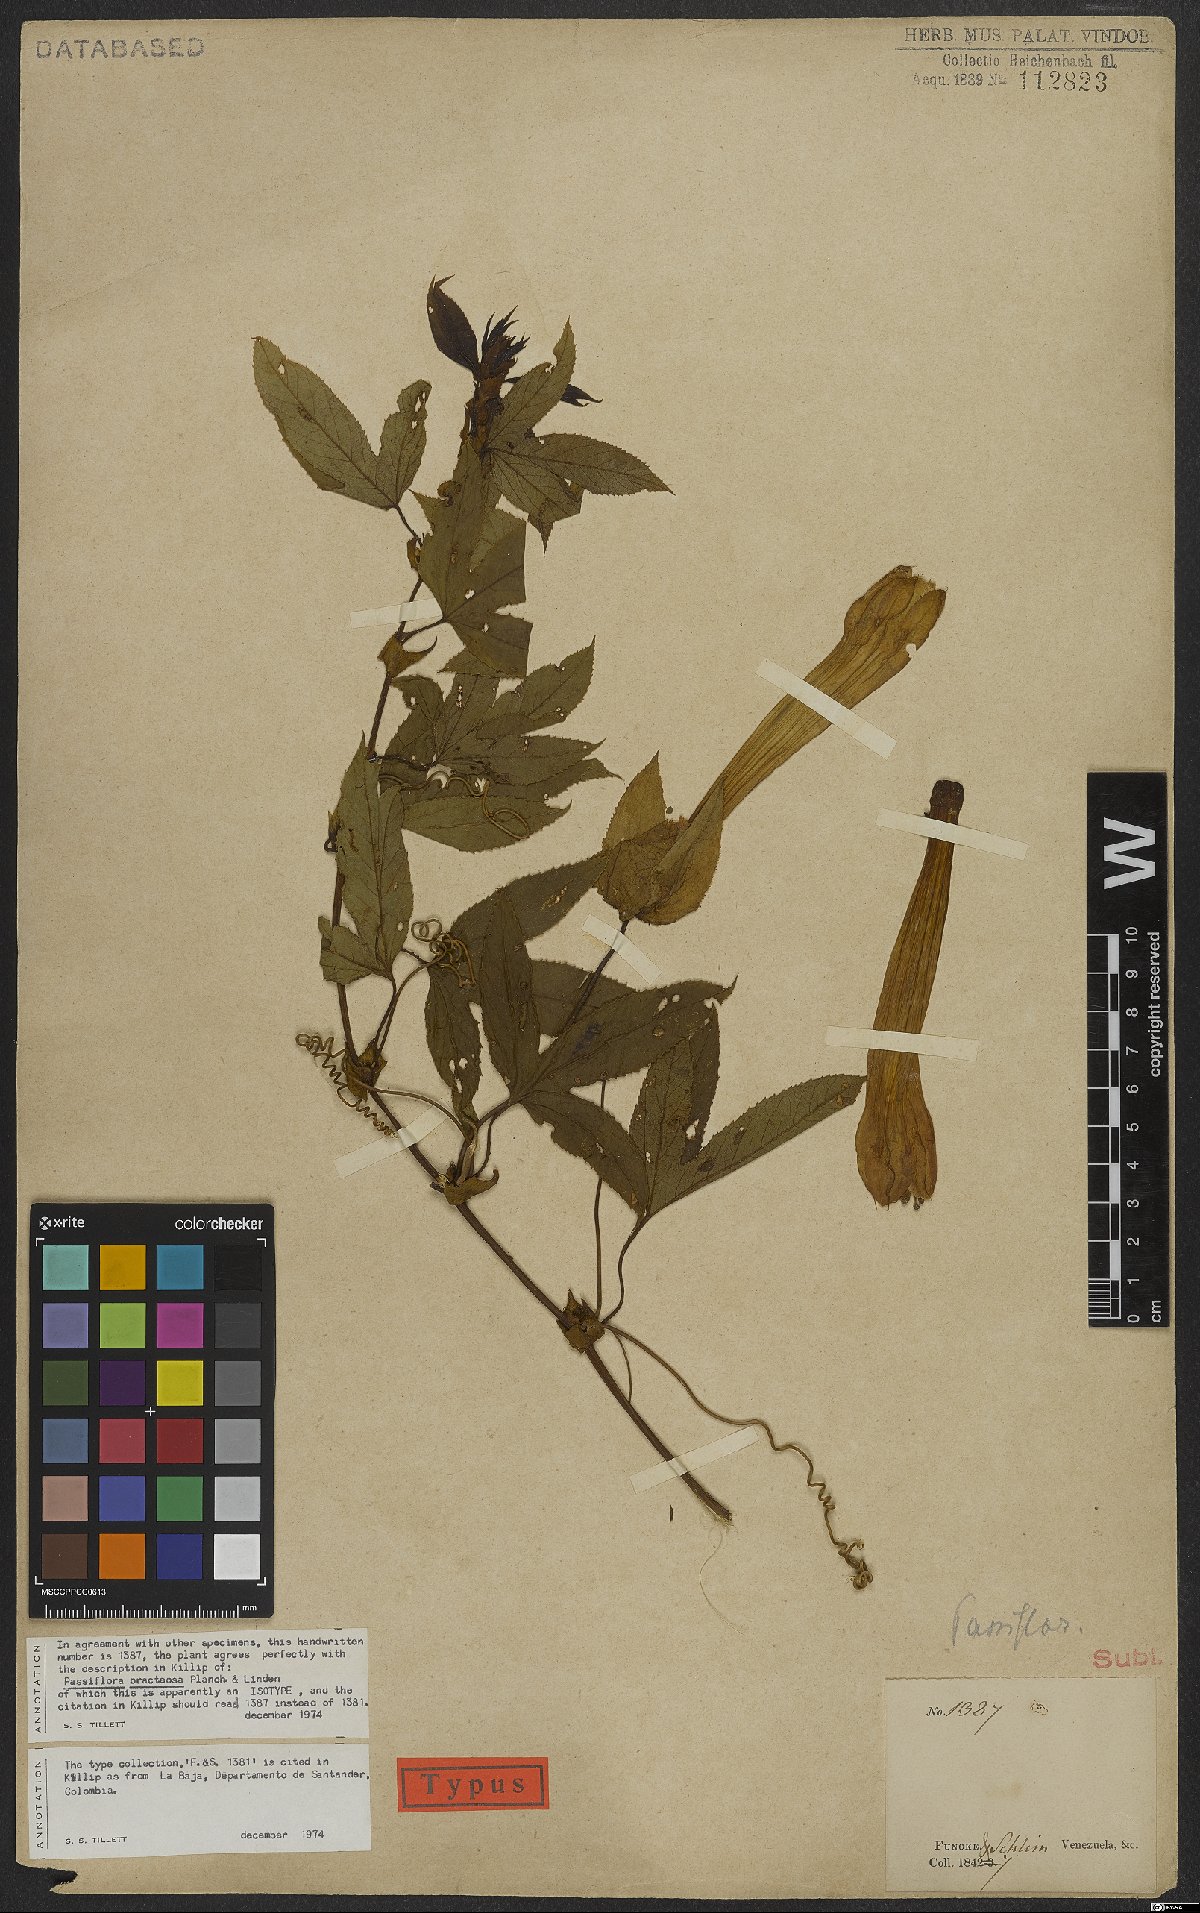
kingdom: Plantae
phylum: Tracheophyta
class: Magnoliopsida
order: Malpighiales
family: Passifloraceae
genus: Passiflora
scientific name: Passiflora bracteosa
